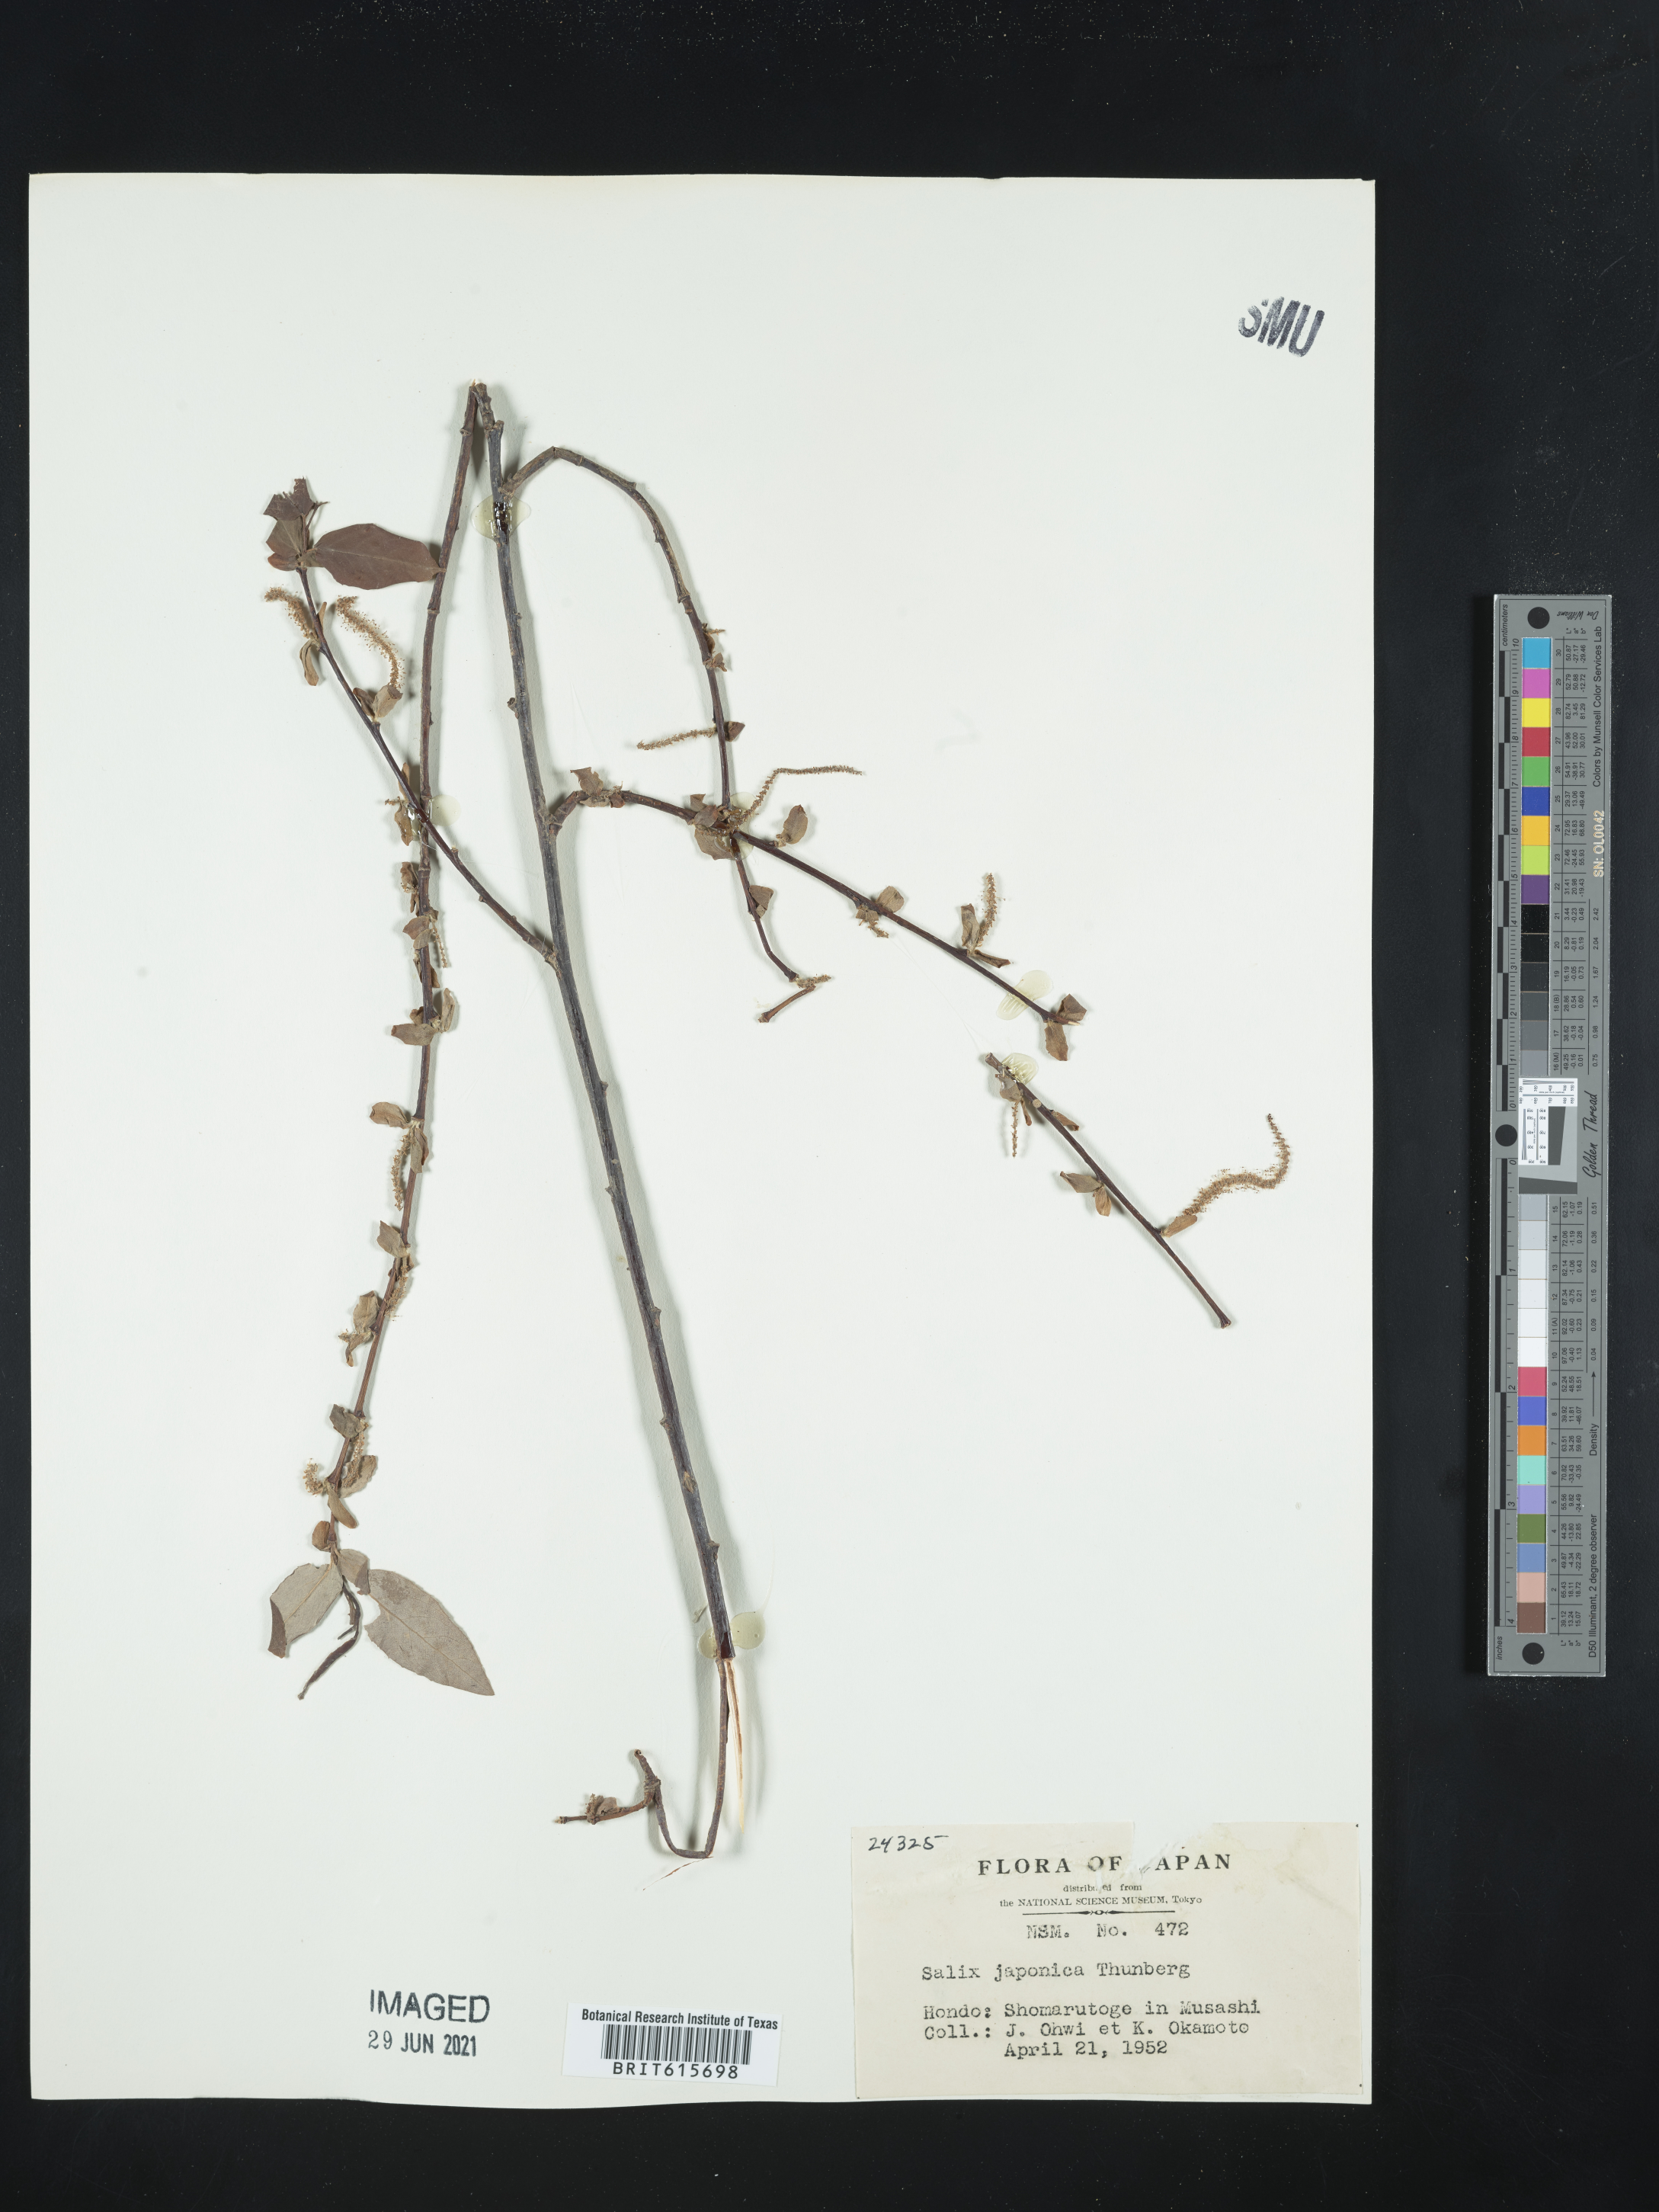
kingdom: Plantae
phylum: Tracheophyta
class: Magnoliopsida
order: Malpighiales
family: Salicaceae
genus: Salix
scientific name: Salix japonica
